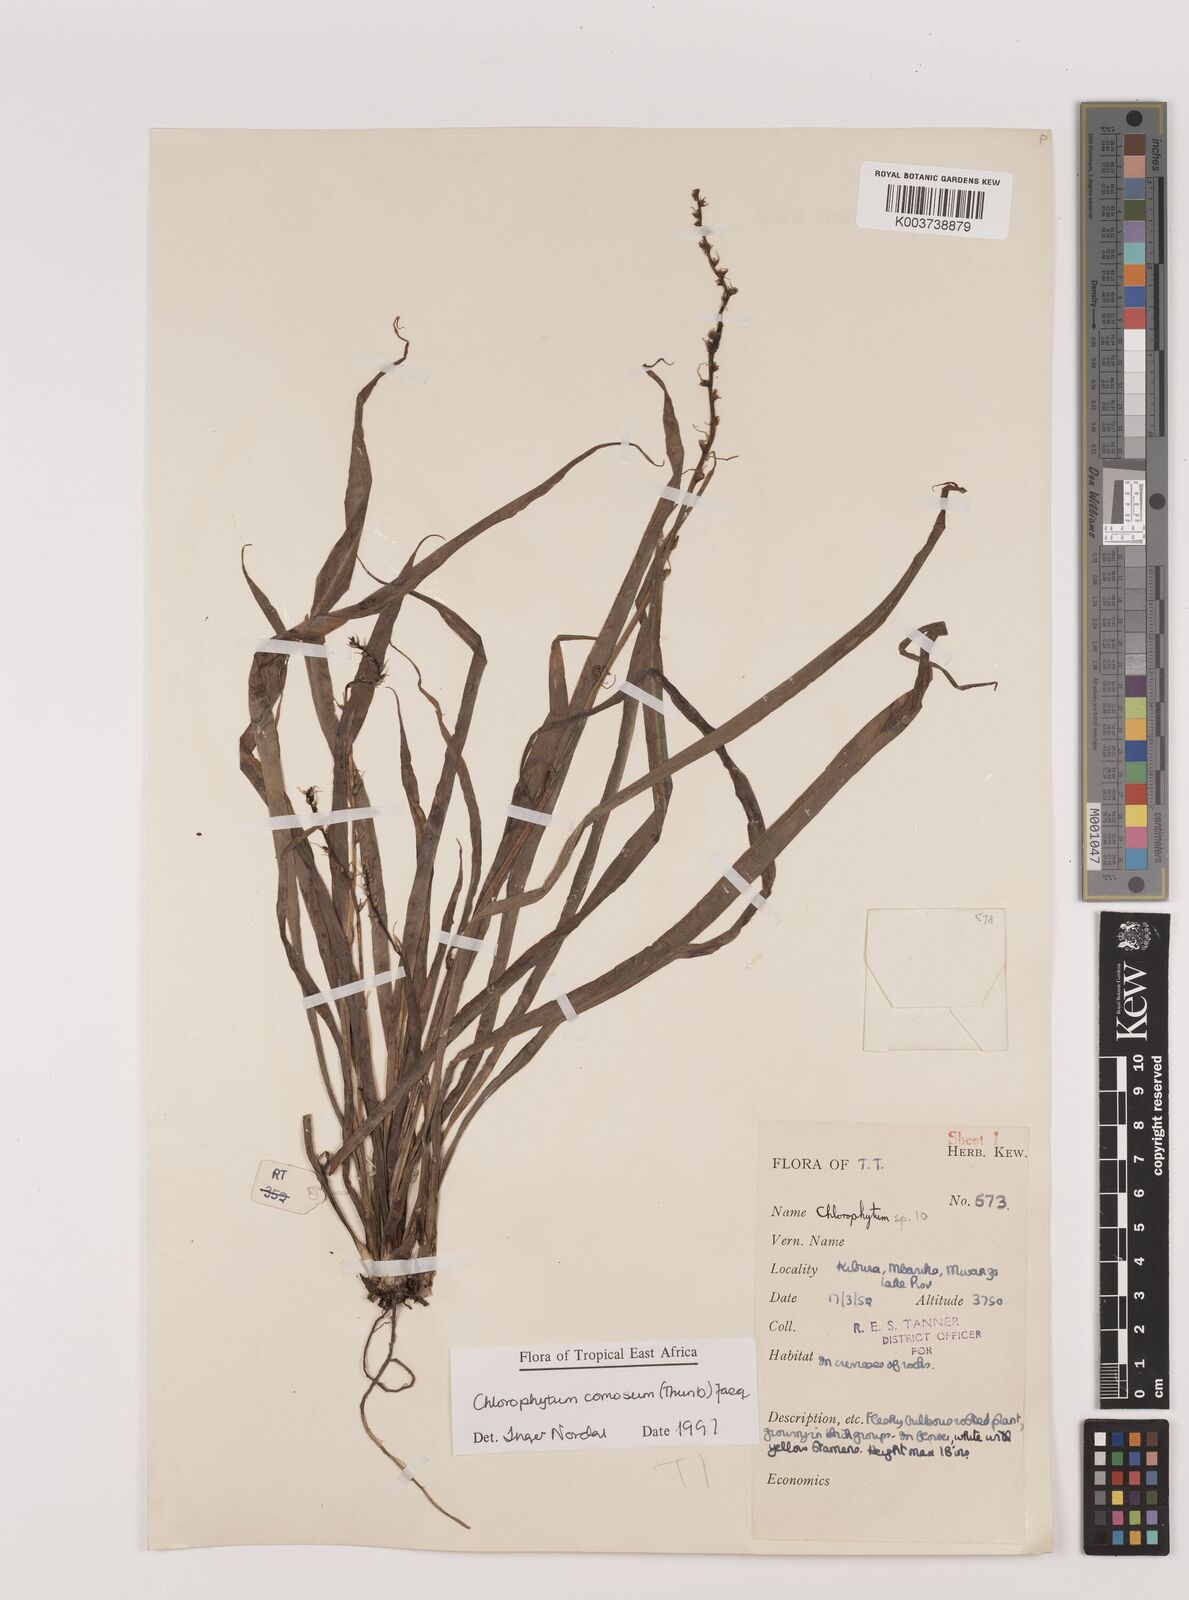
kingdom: Plantae
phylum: Tracheophyta
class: Liliopsida
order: Asparagales
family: Asparagaceae
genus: Chlorophytum
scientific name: Chlorophytum comosum
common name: Spider plant
